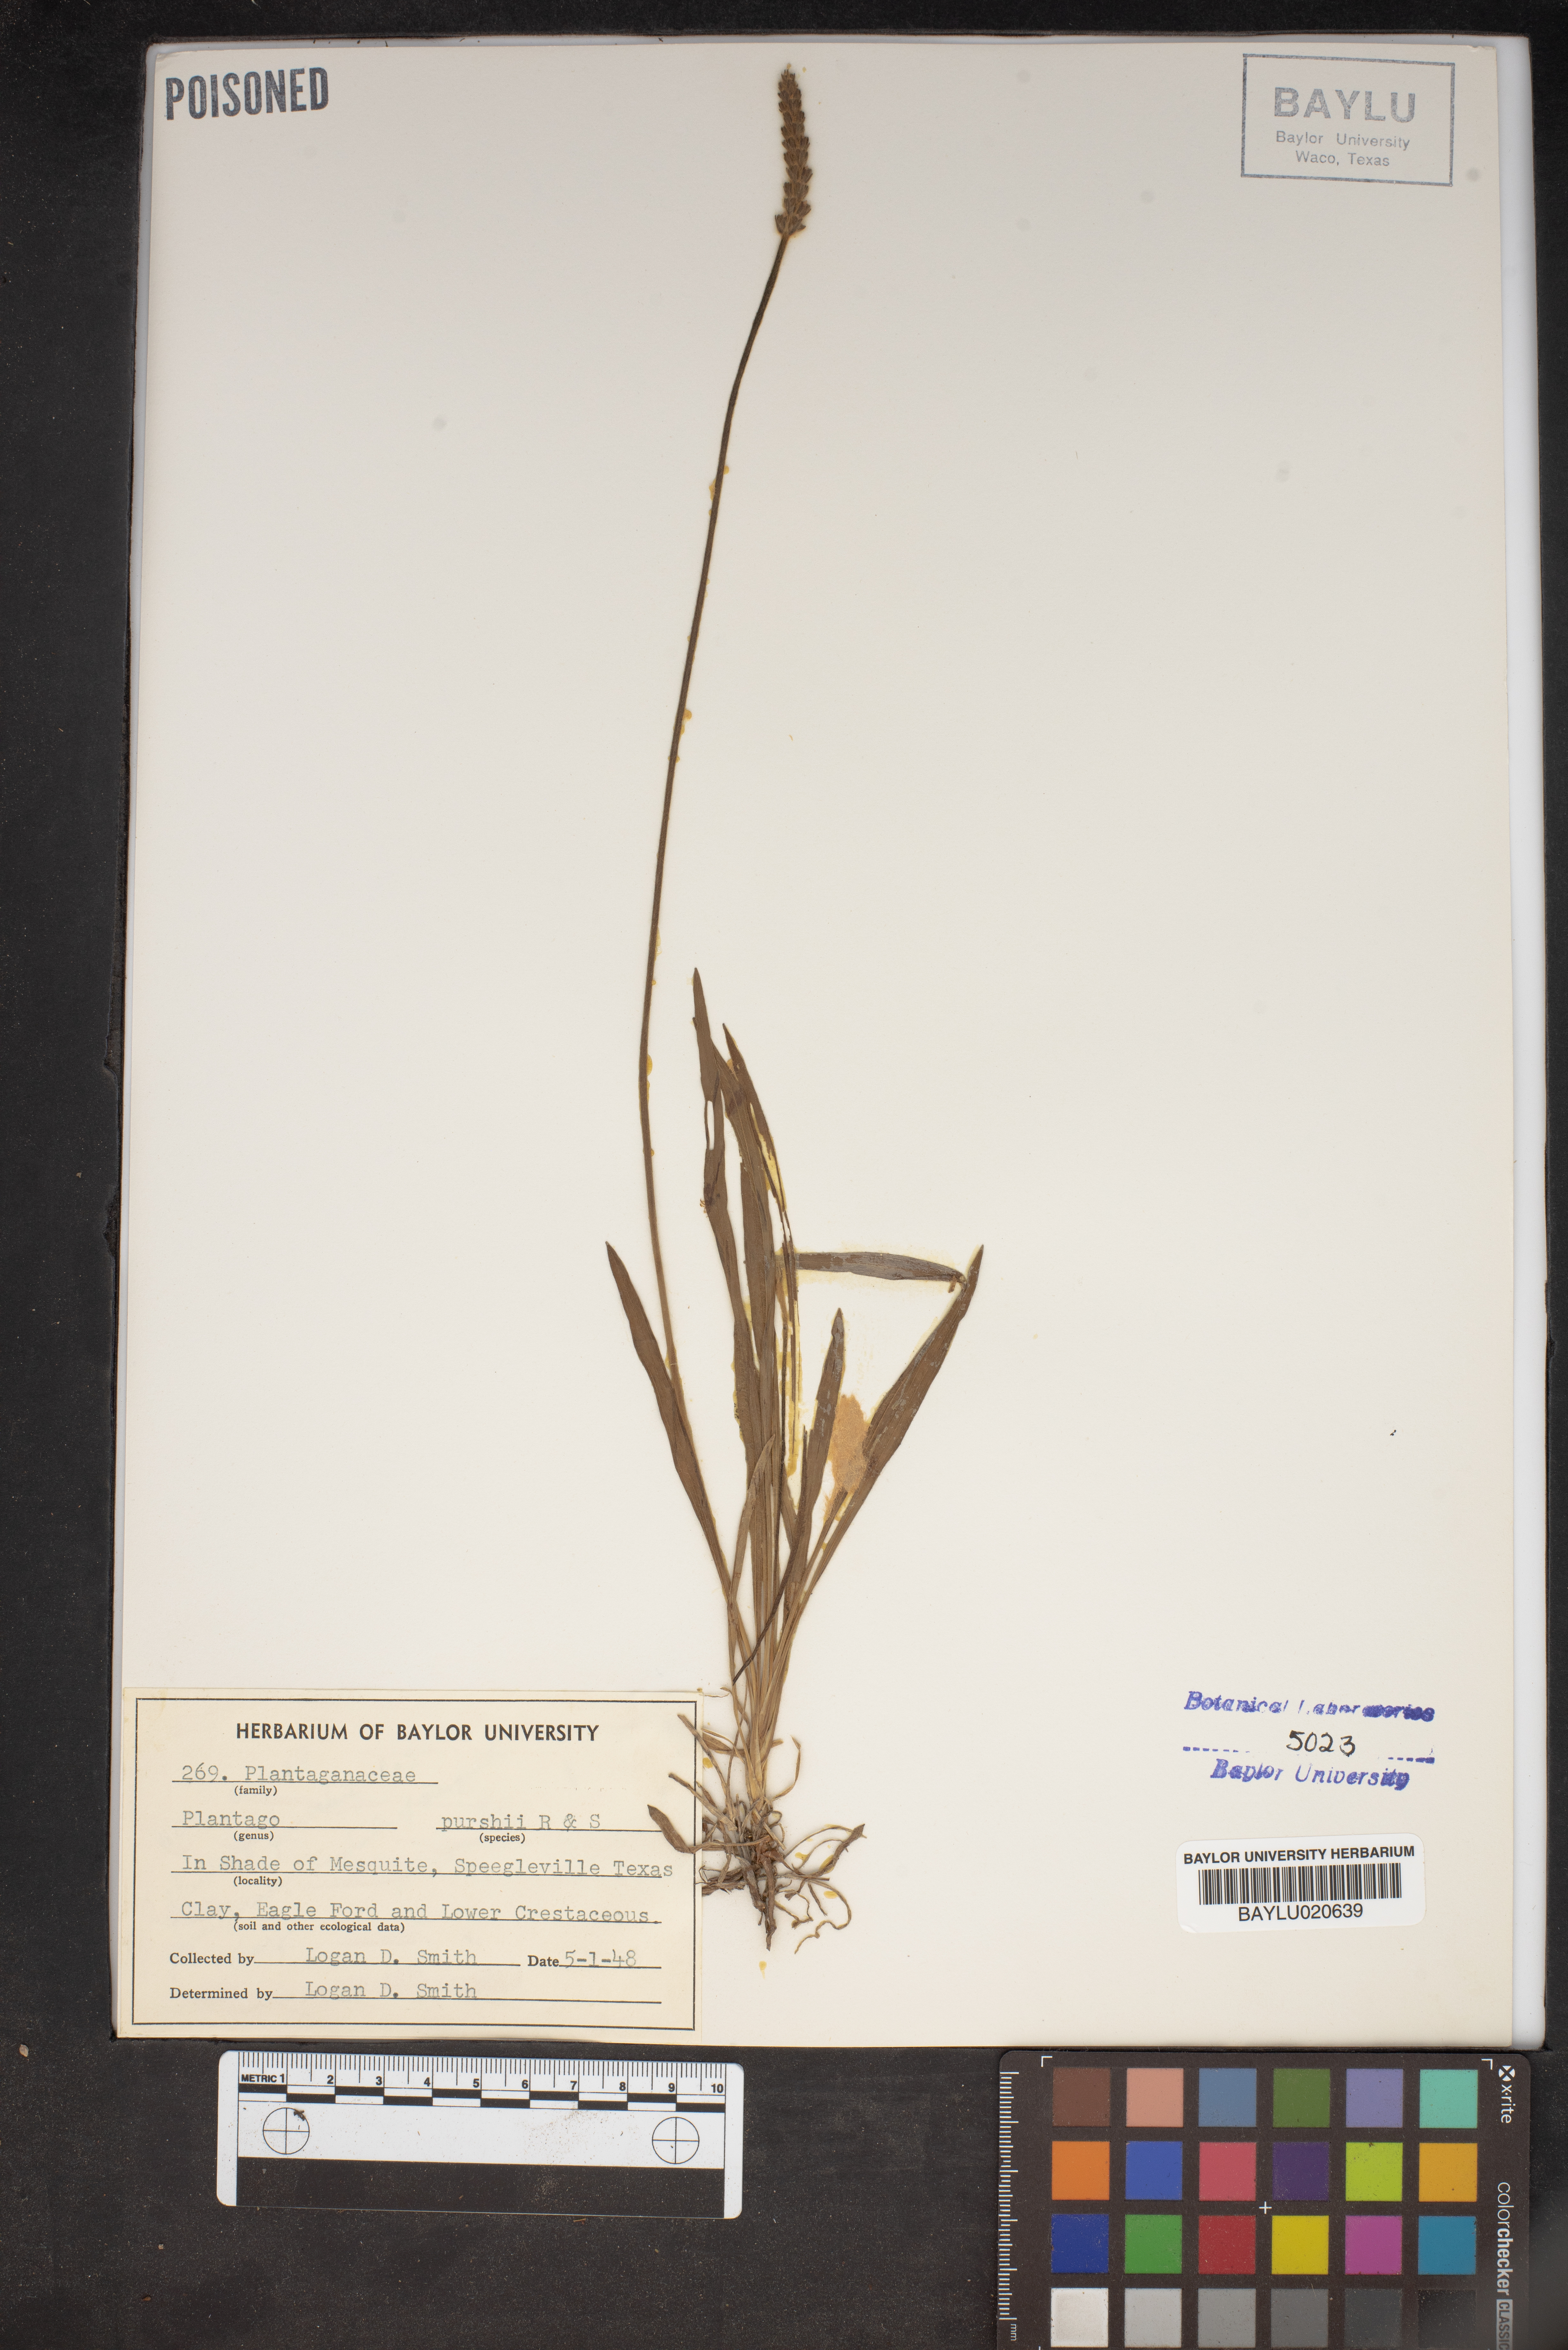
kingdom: Plantae
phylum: Tracheophyta
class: Magnoliopsida
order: Lamiales
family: Plantaginaceae
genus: Plantago
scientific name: Plantago patagonica
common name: Patagonia indian-wheat
